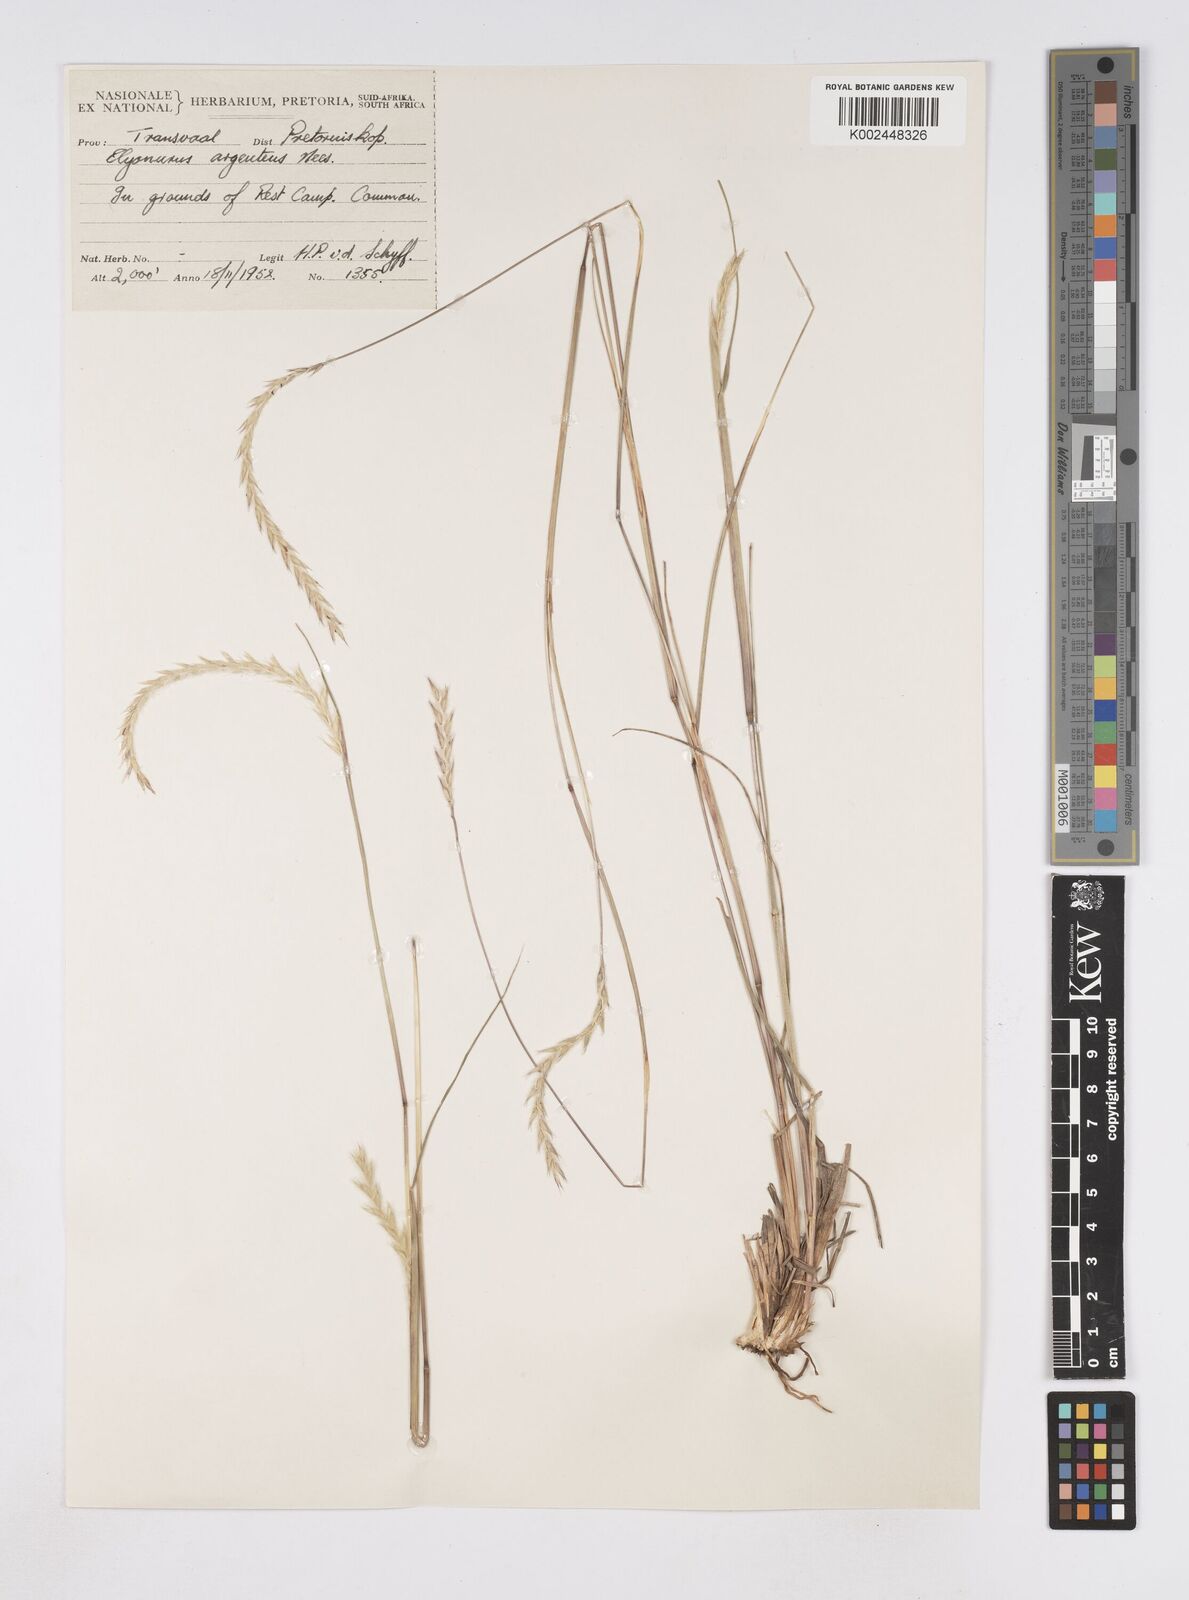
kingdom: Plantae
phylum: Tracheophyta
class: Liliopsida
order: Poales
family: Poaceae
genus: Elionurus
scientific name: Elionurus muticus
